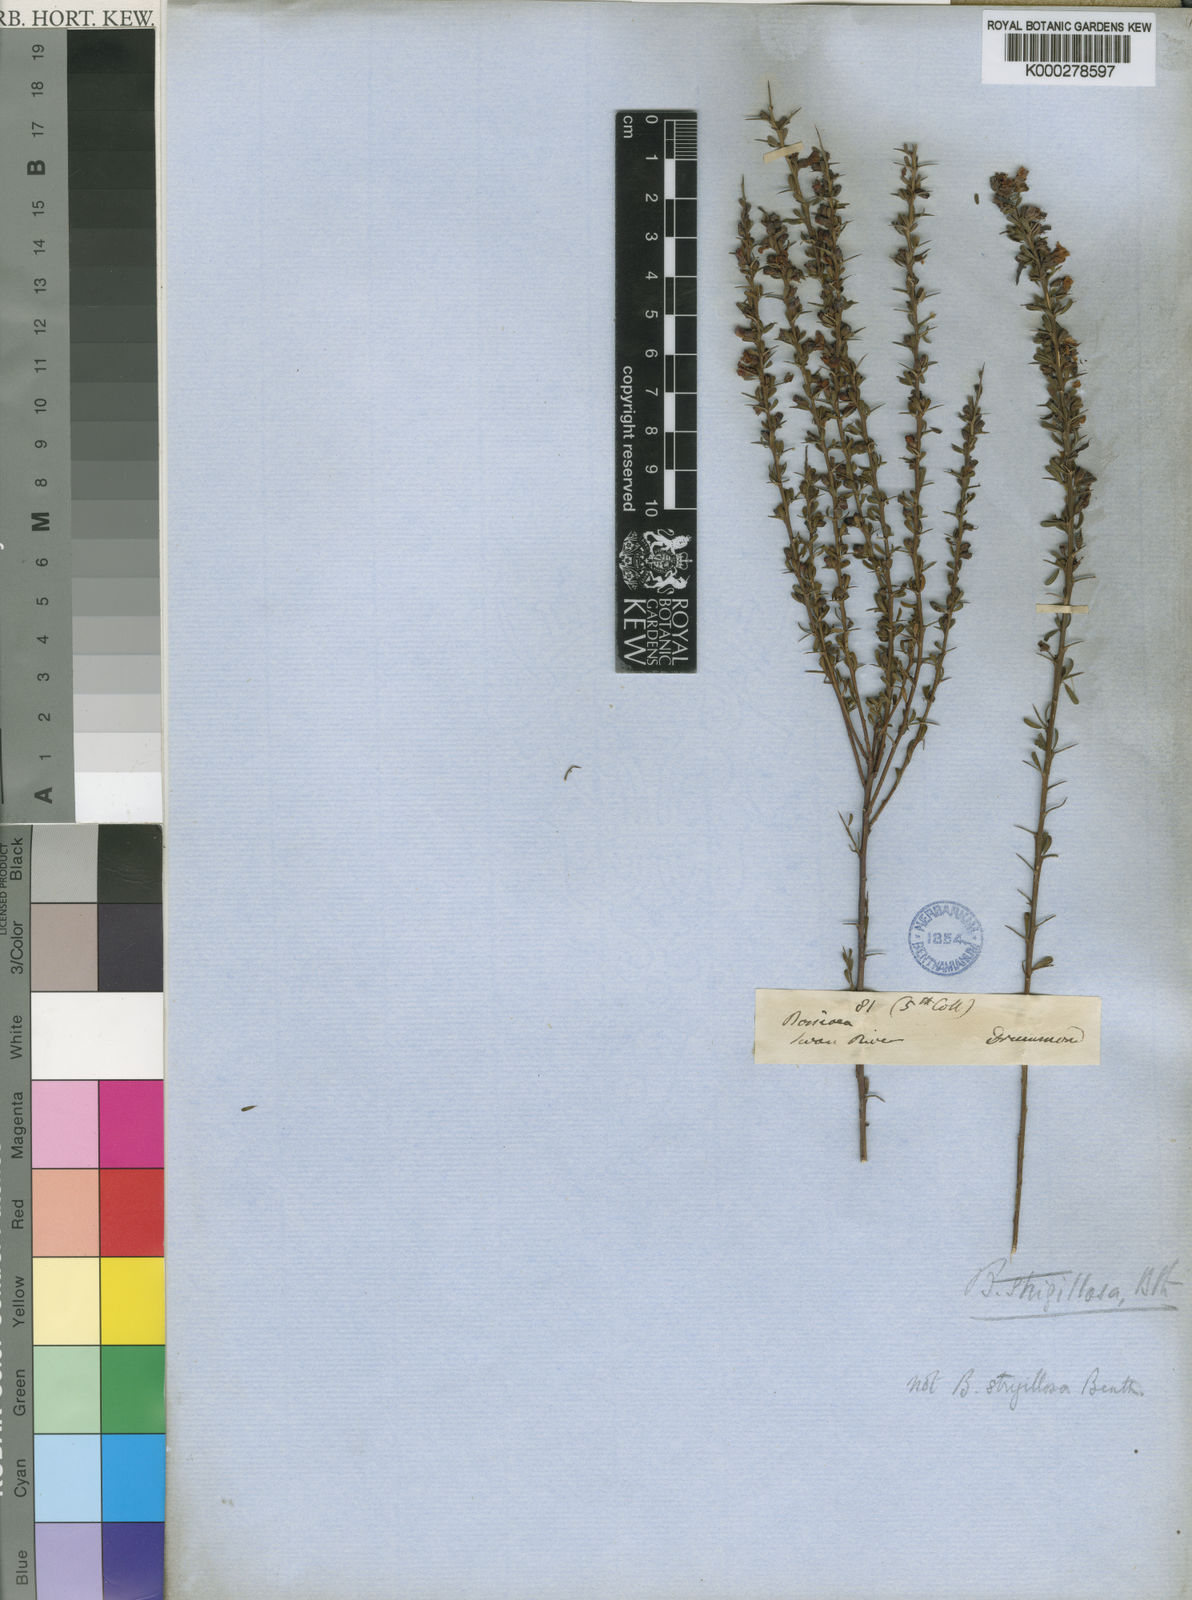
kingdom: Plantae
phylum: Tracheophyta
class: Magnoliopsida
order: Fabales
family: Fabaceae
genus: Pultenaea
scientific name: Pultenaea rotundifolia
